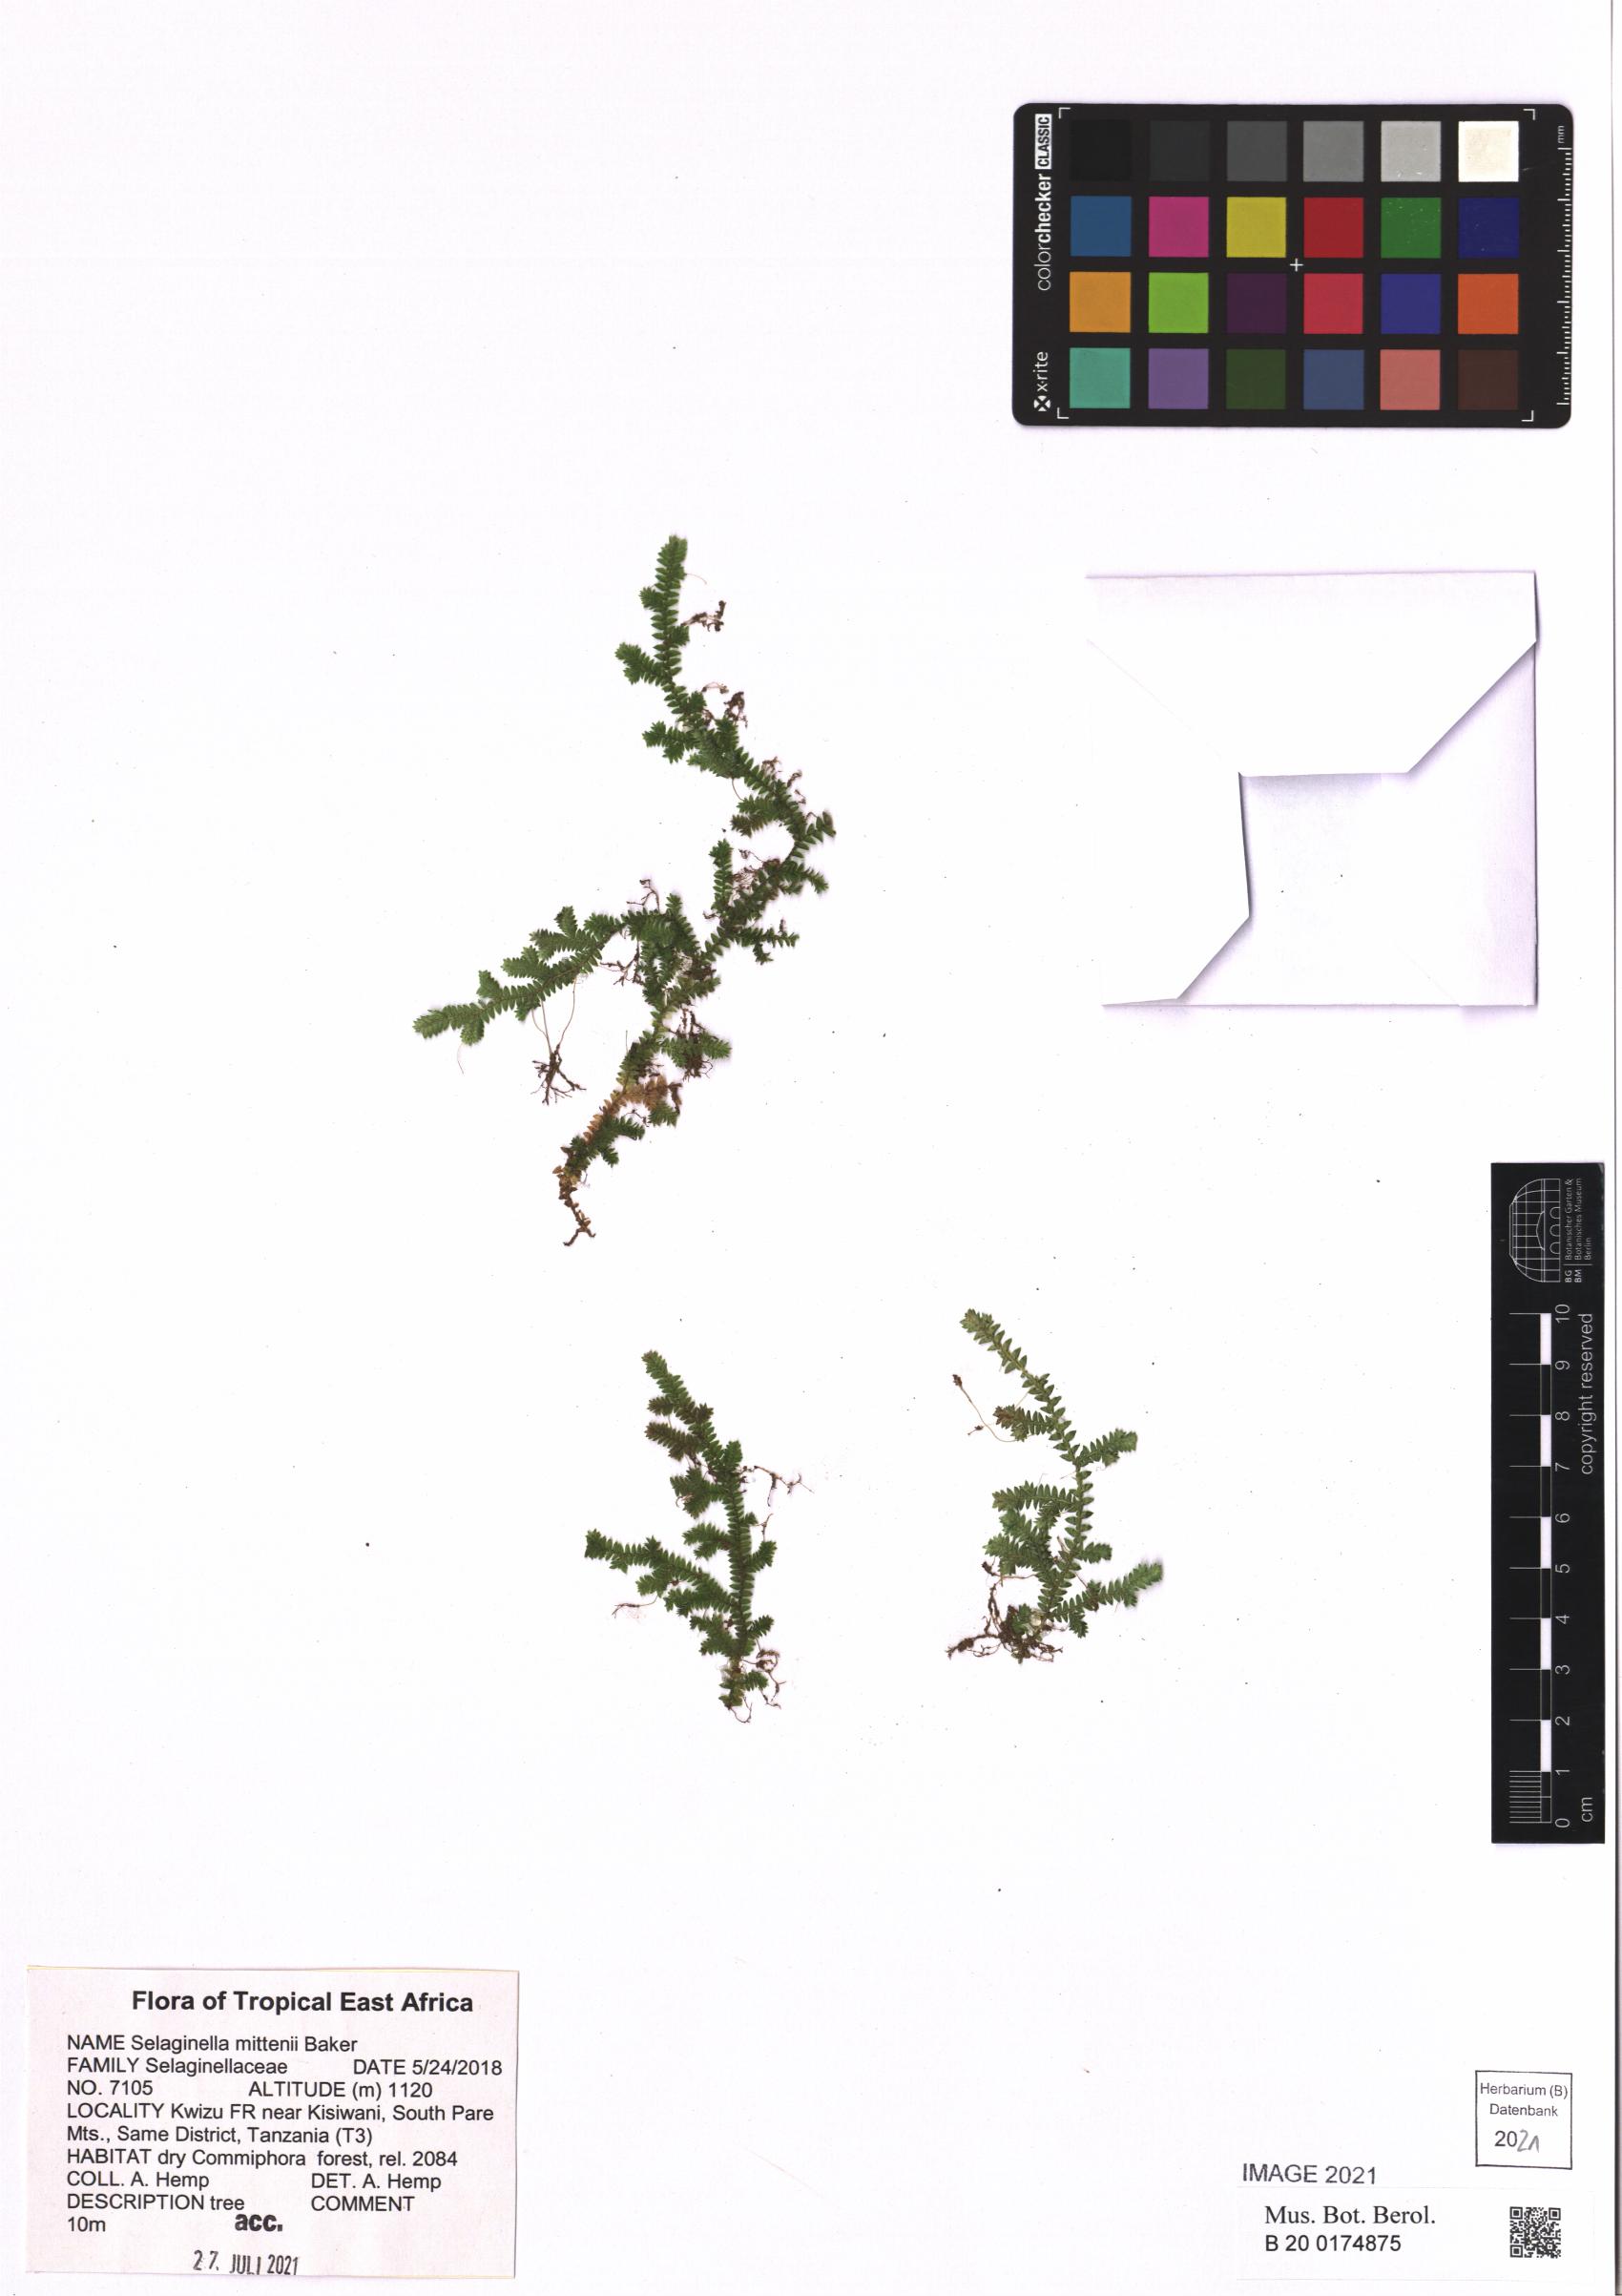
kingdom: Plantae
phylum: Tracheophyta
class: Lycopodiopsida
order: Selaginellales
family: Selaginellaceae
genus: Selaginella
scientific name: Selaginella mittenii
